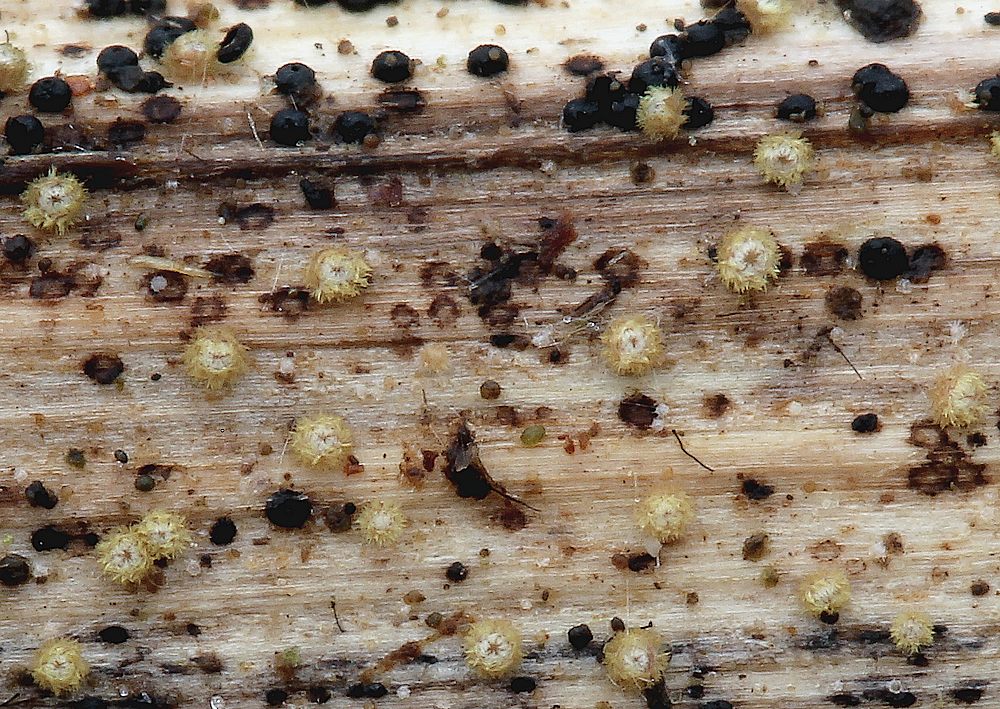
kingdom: Fungi
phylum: Ascomycota
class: Leotiomycetes
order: Helotiales
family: Lachnaceae
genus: Lachnum
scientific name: Lachnum mollissimum
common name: smuk frynseskive
